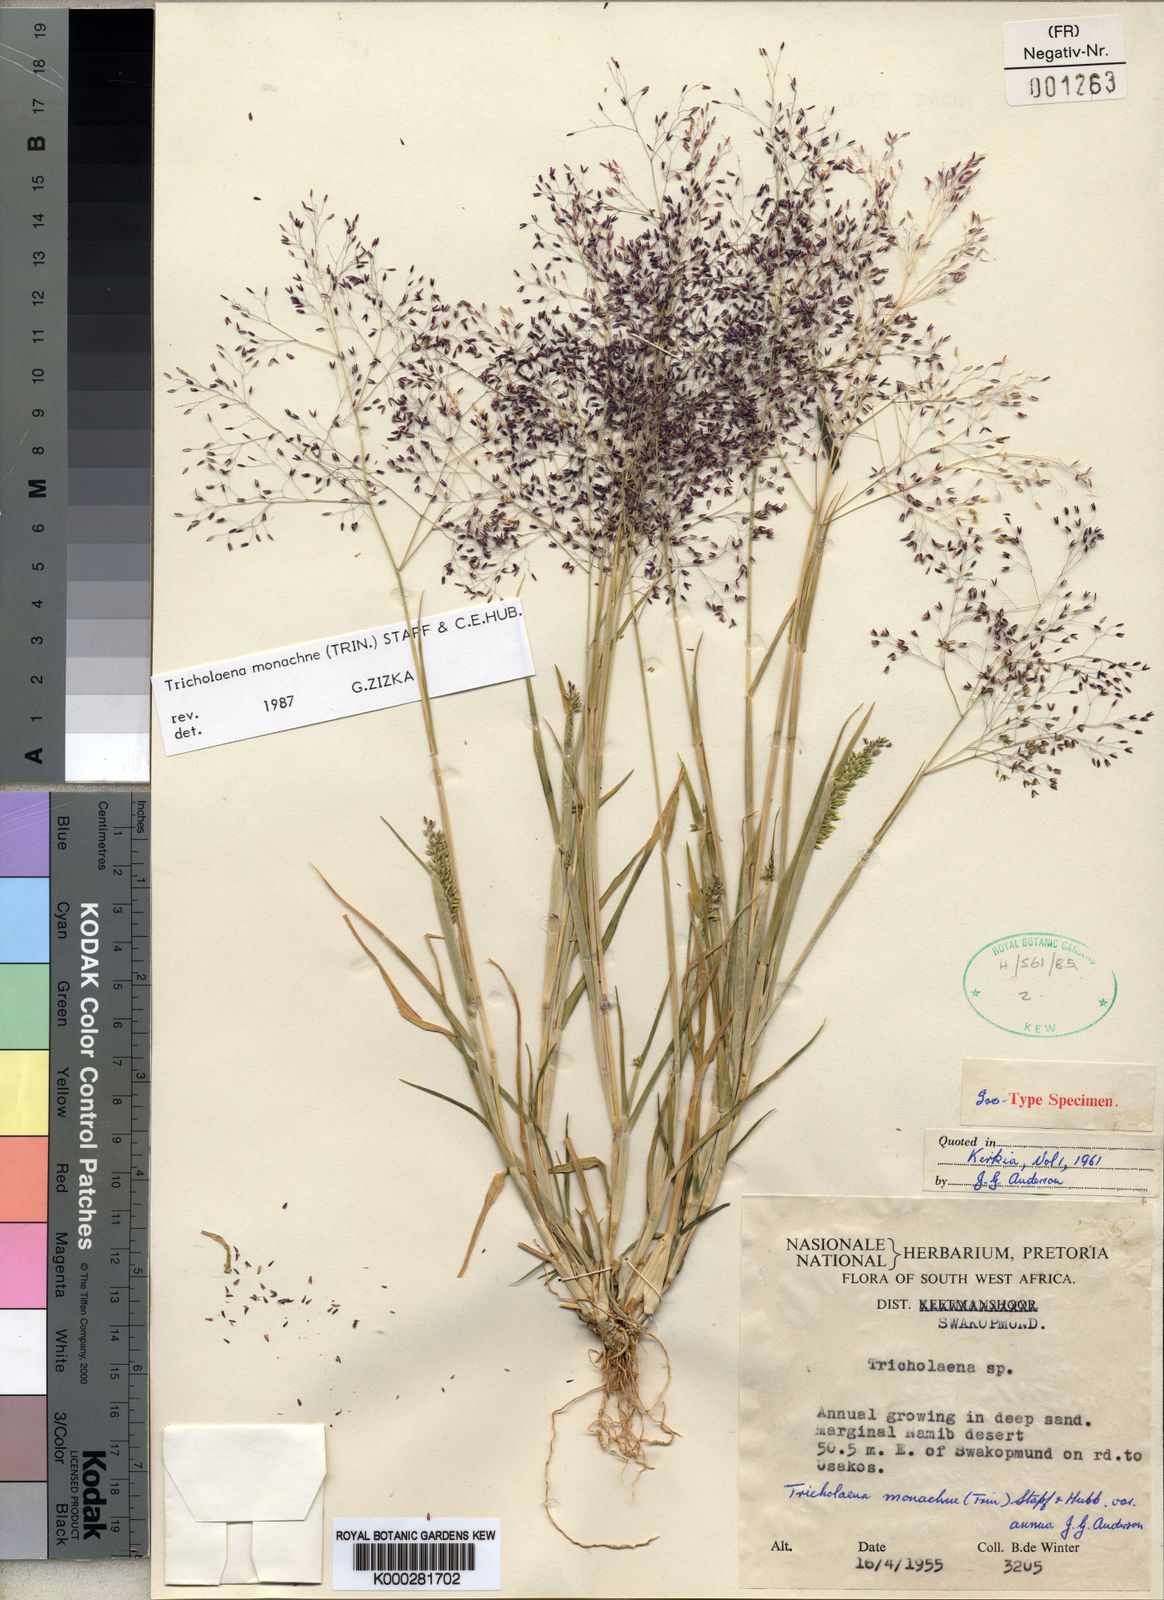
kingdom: Plantae
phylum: Tracheophyta
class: Liliopsida
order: Poales
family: Poaceae
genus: Tricholaena
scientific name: Tricholaena monachne
